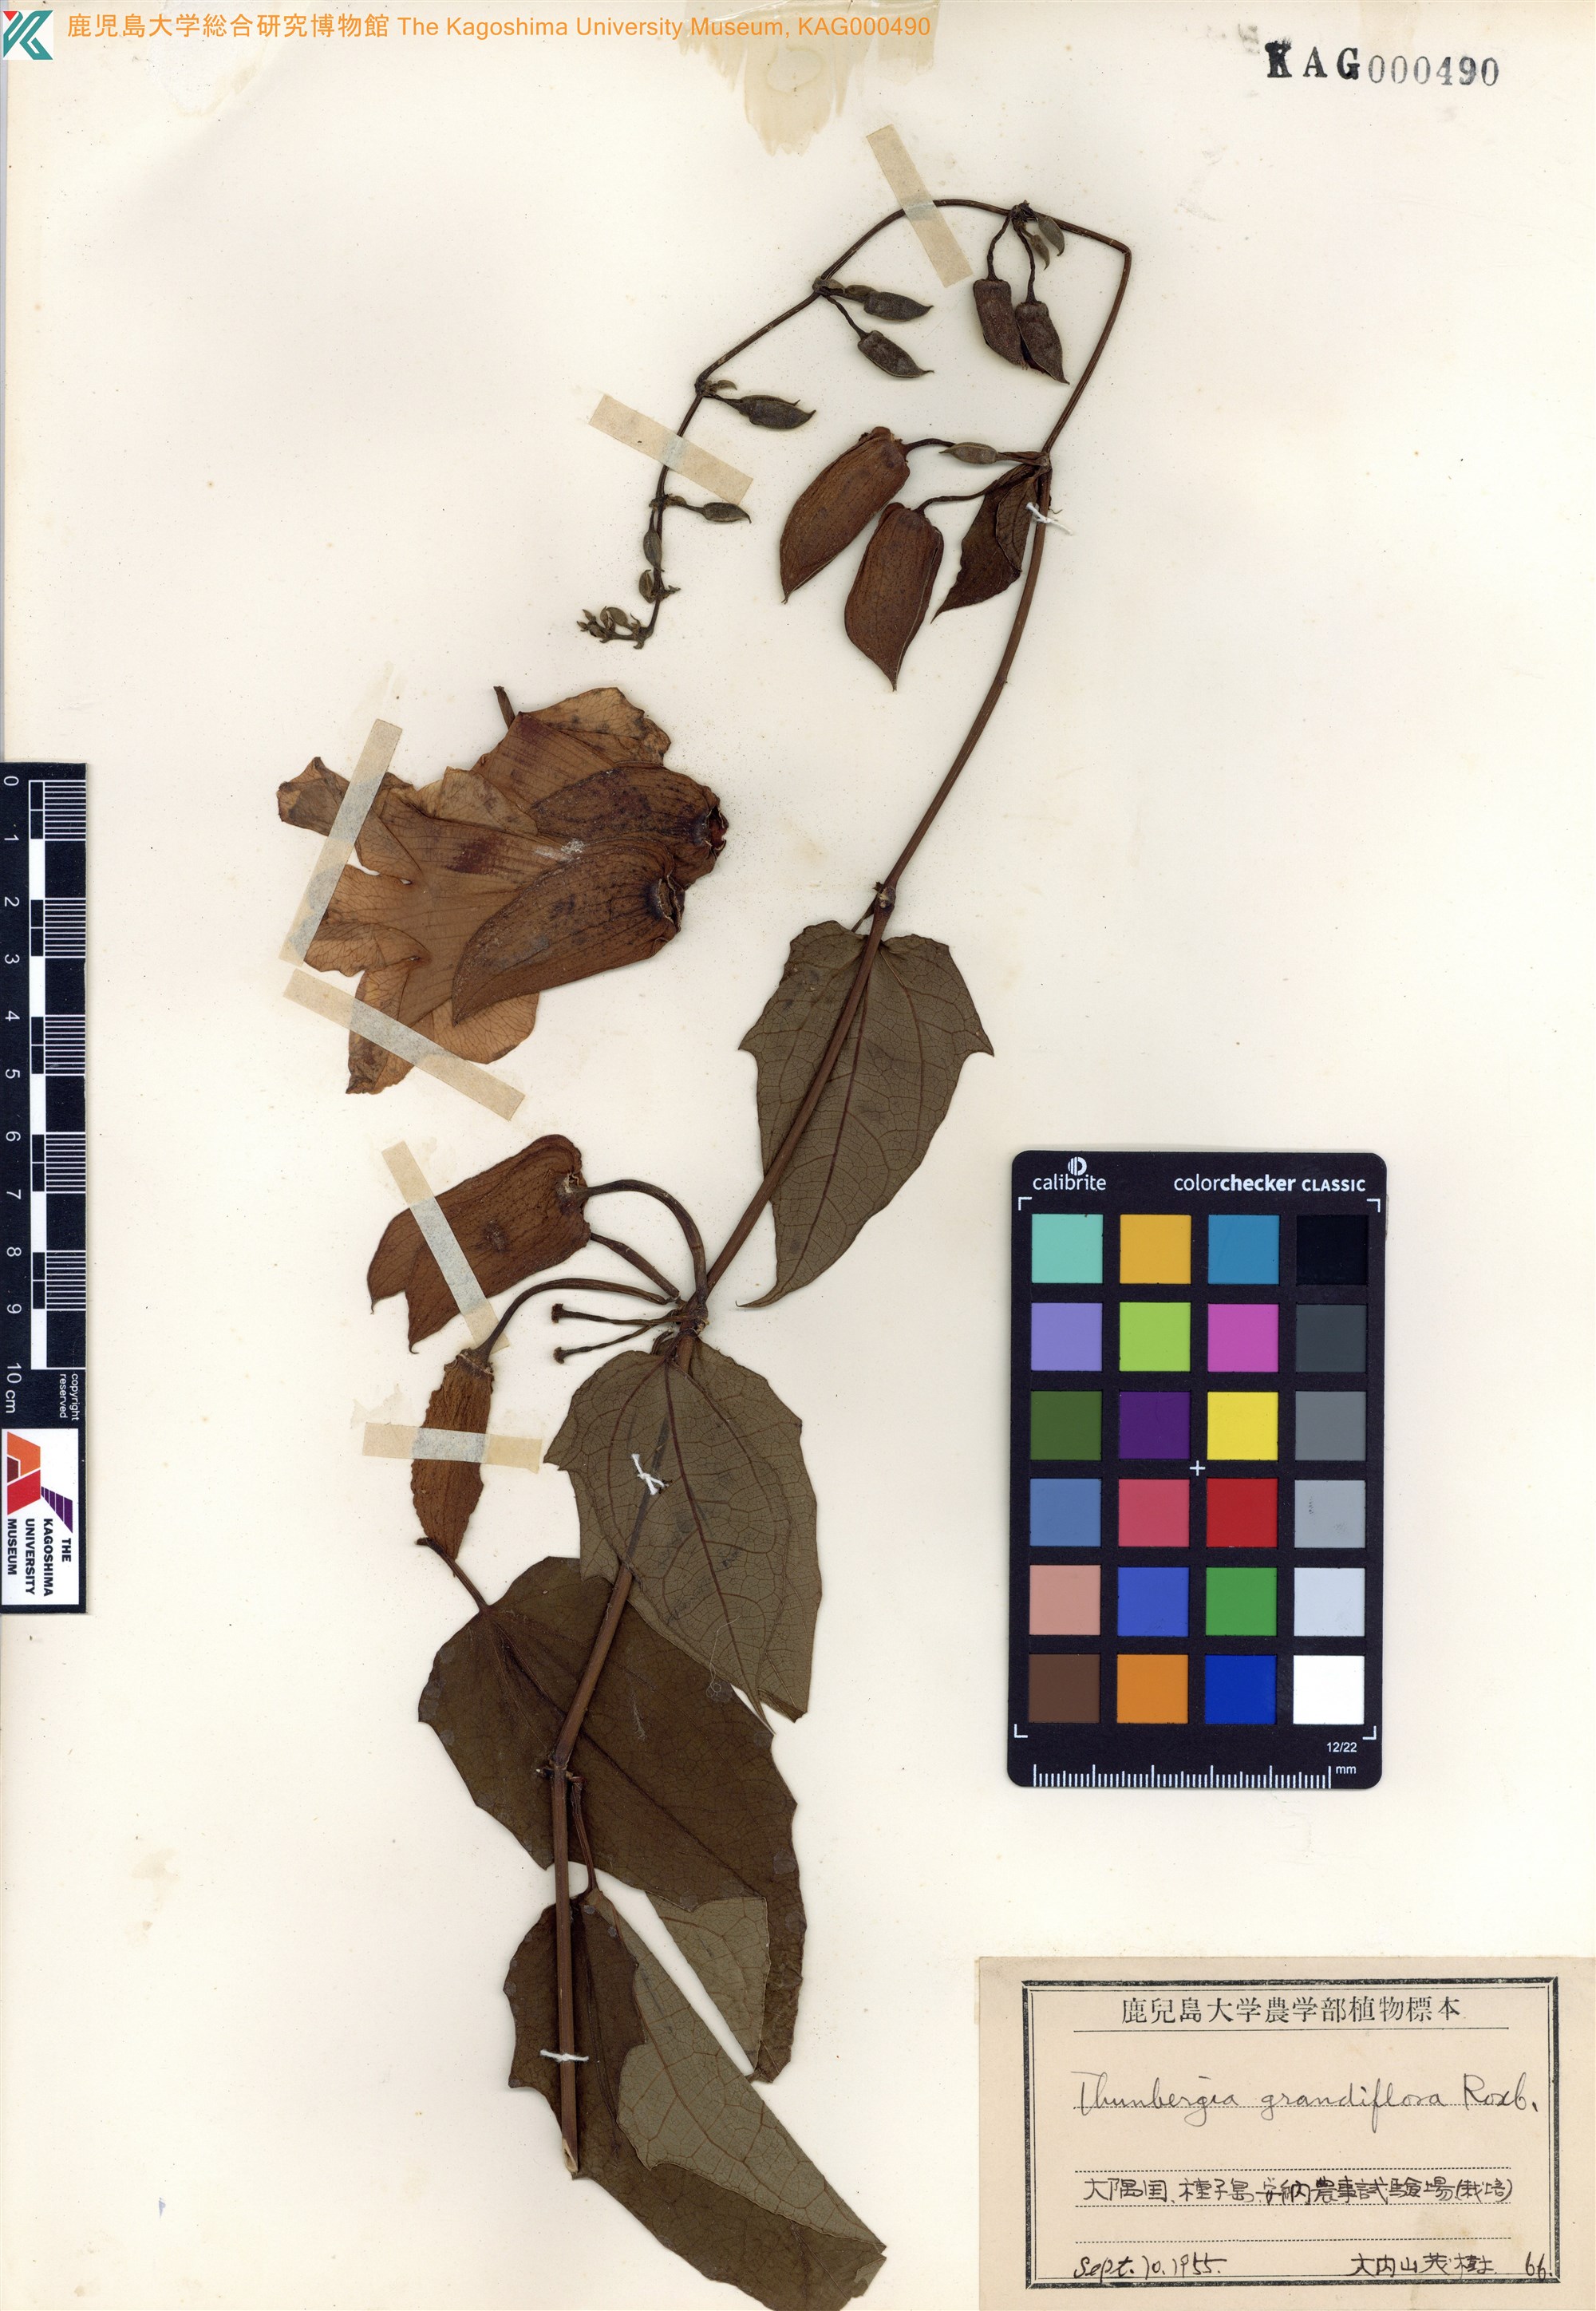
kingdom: Plantae
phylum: Tracheophyta
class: Magnoliopsida
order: Lamiales
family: Acanthaceae
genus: Thunbergia
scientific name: Thunbergia grandiflora
